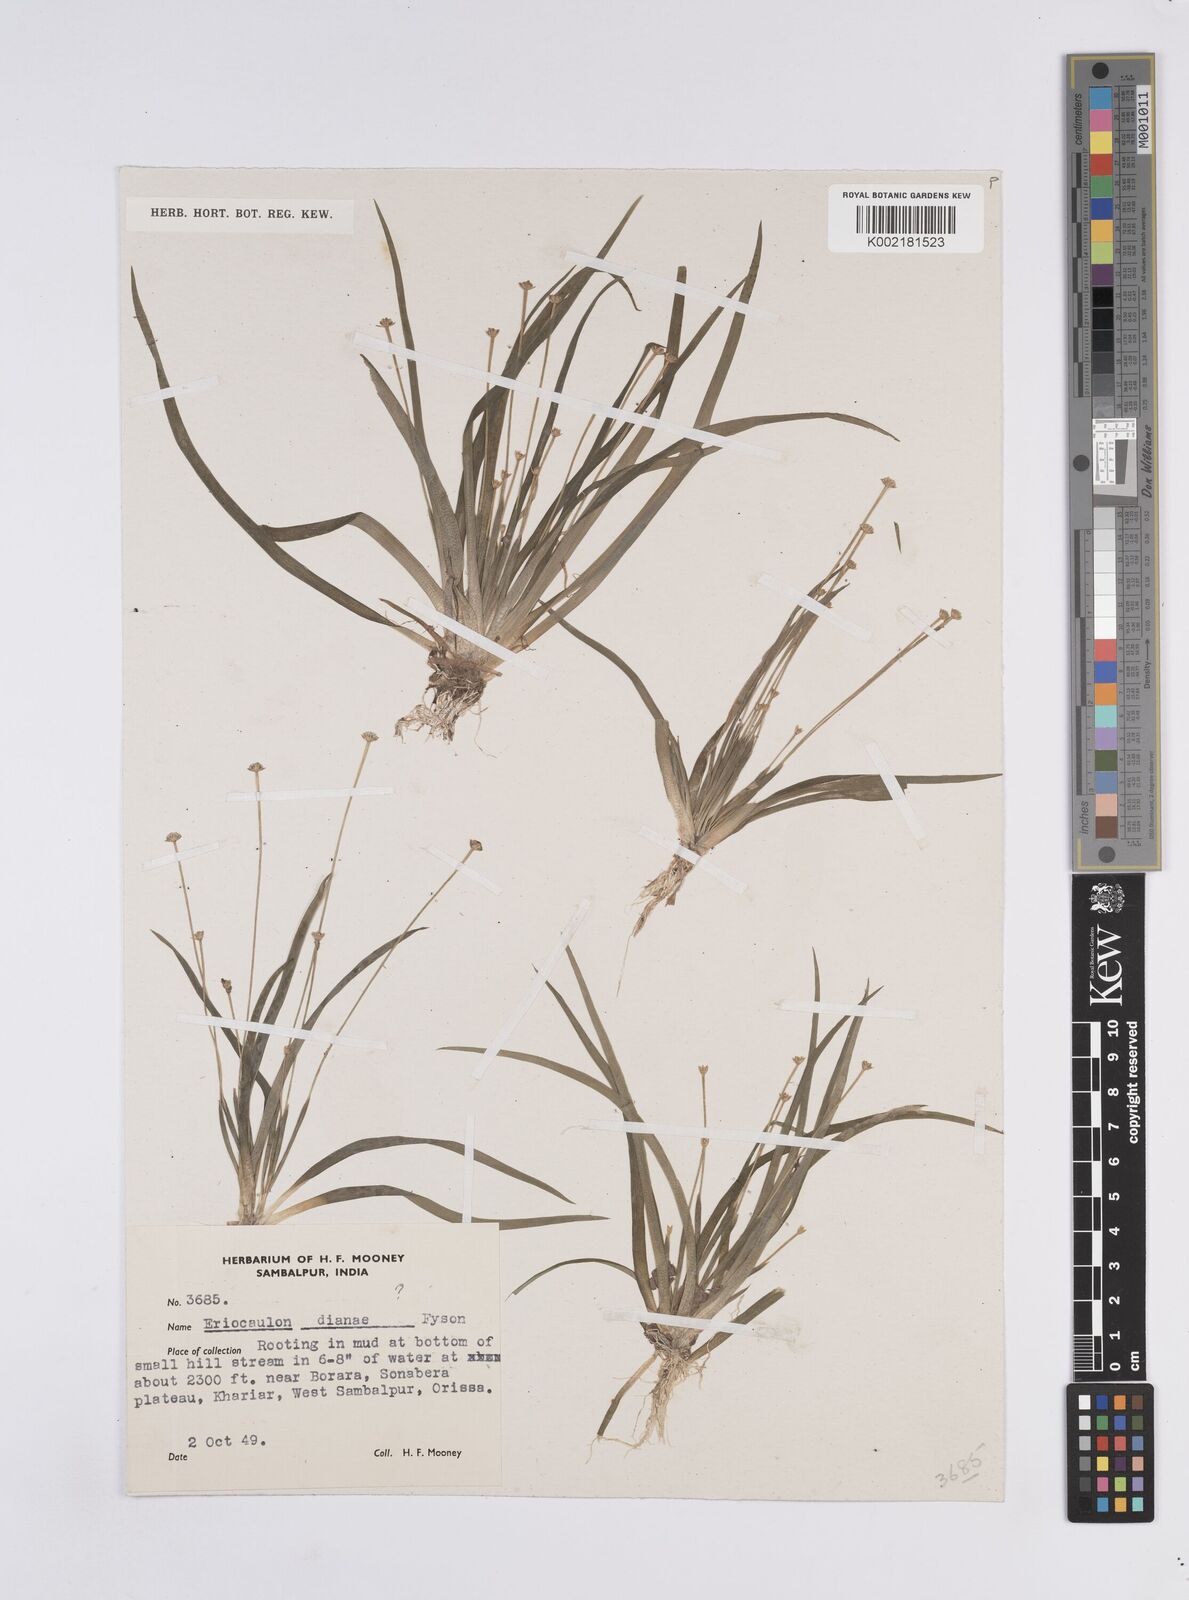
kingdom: Plantae
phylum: Tracheophyta
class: Liliopsida
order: Poales
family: Eriocaulaceae
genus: Eriocaulon
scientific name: Eriocaulon heterolepis
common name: Buttonhead pipewort
